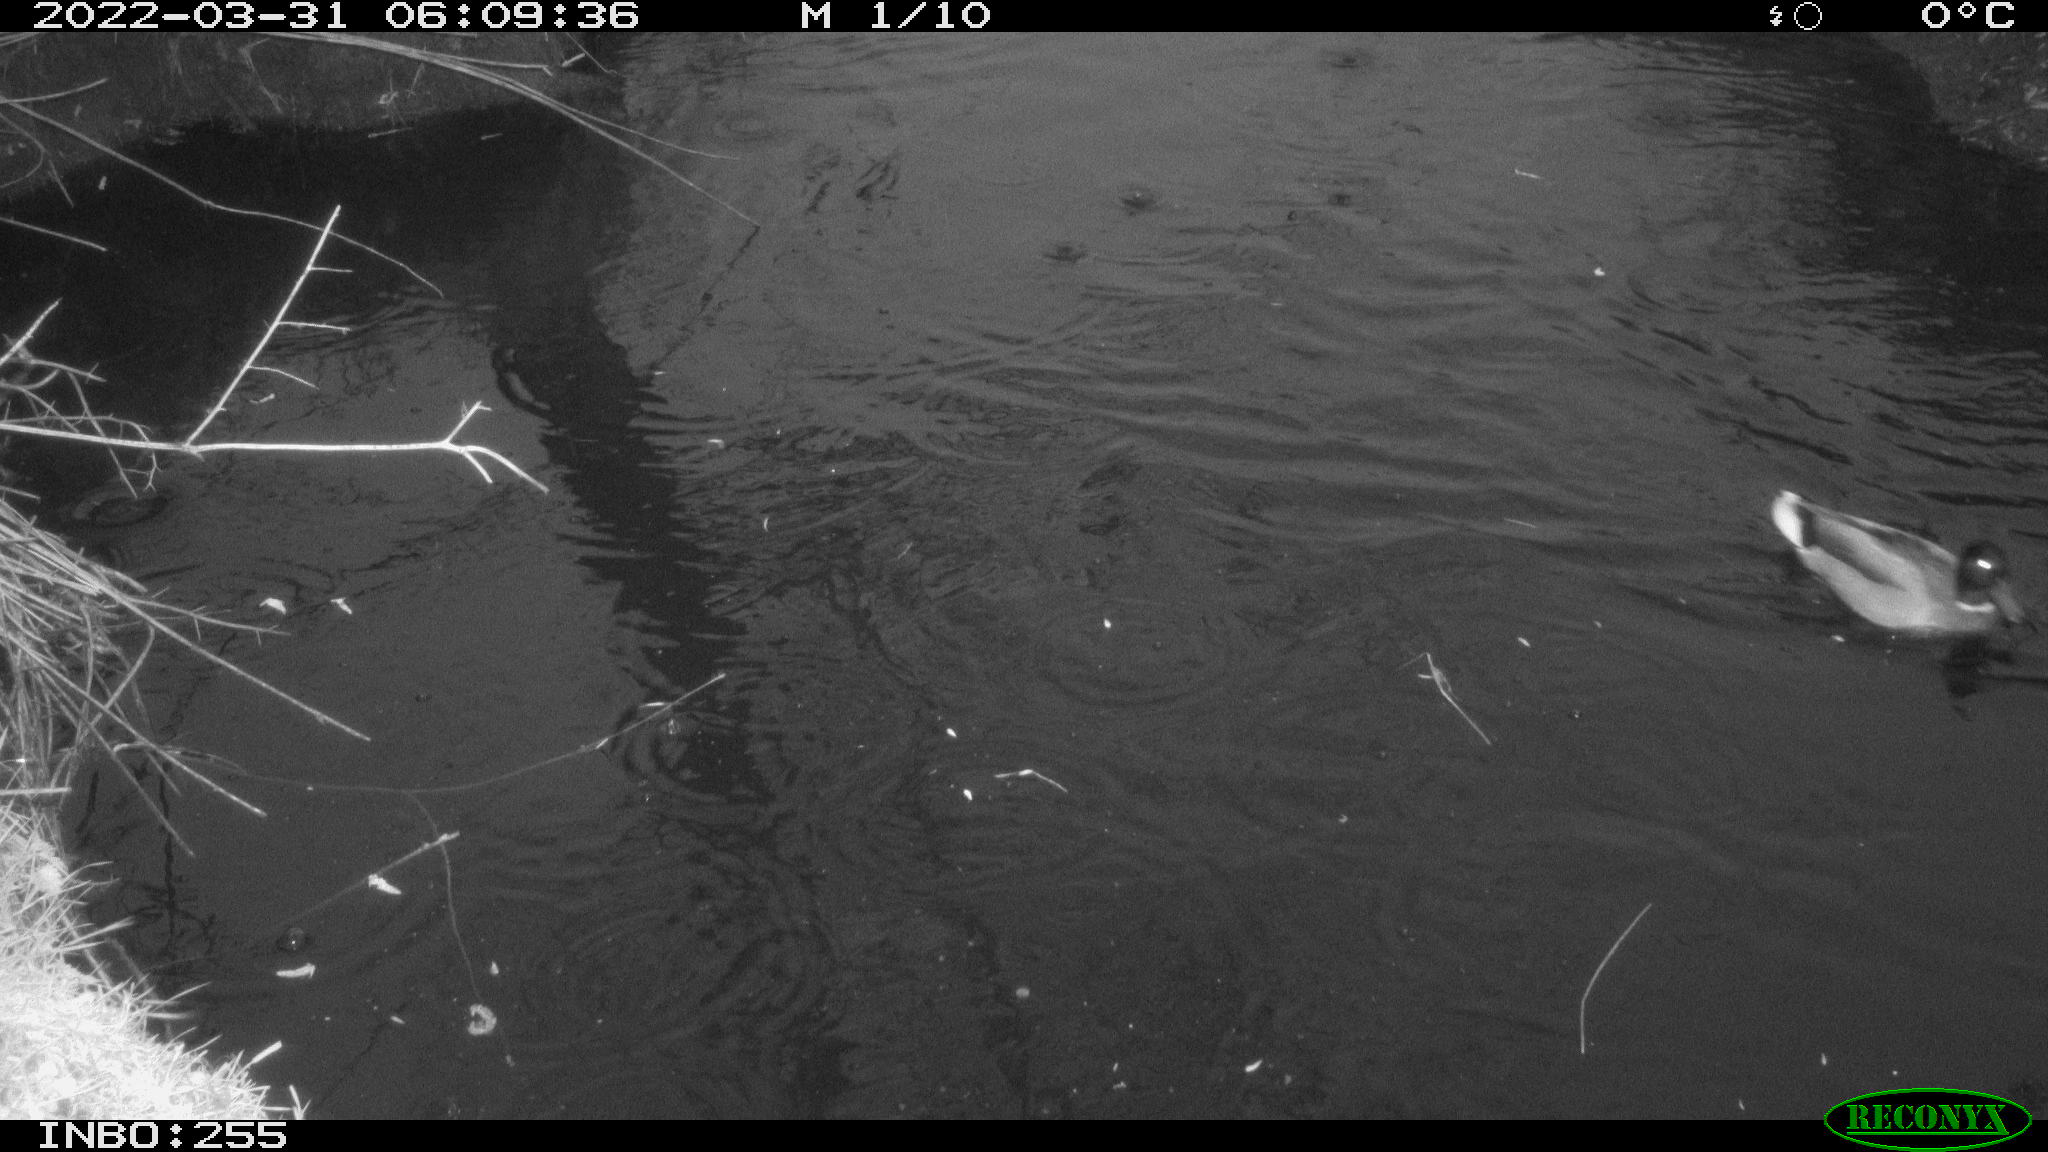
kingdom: Animalia
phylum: Chordata
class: Aves
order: Anseriformes
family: Anatidae
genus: Anas
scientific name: Anas platyrhynchos
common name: Mallard
